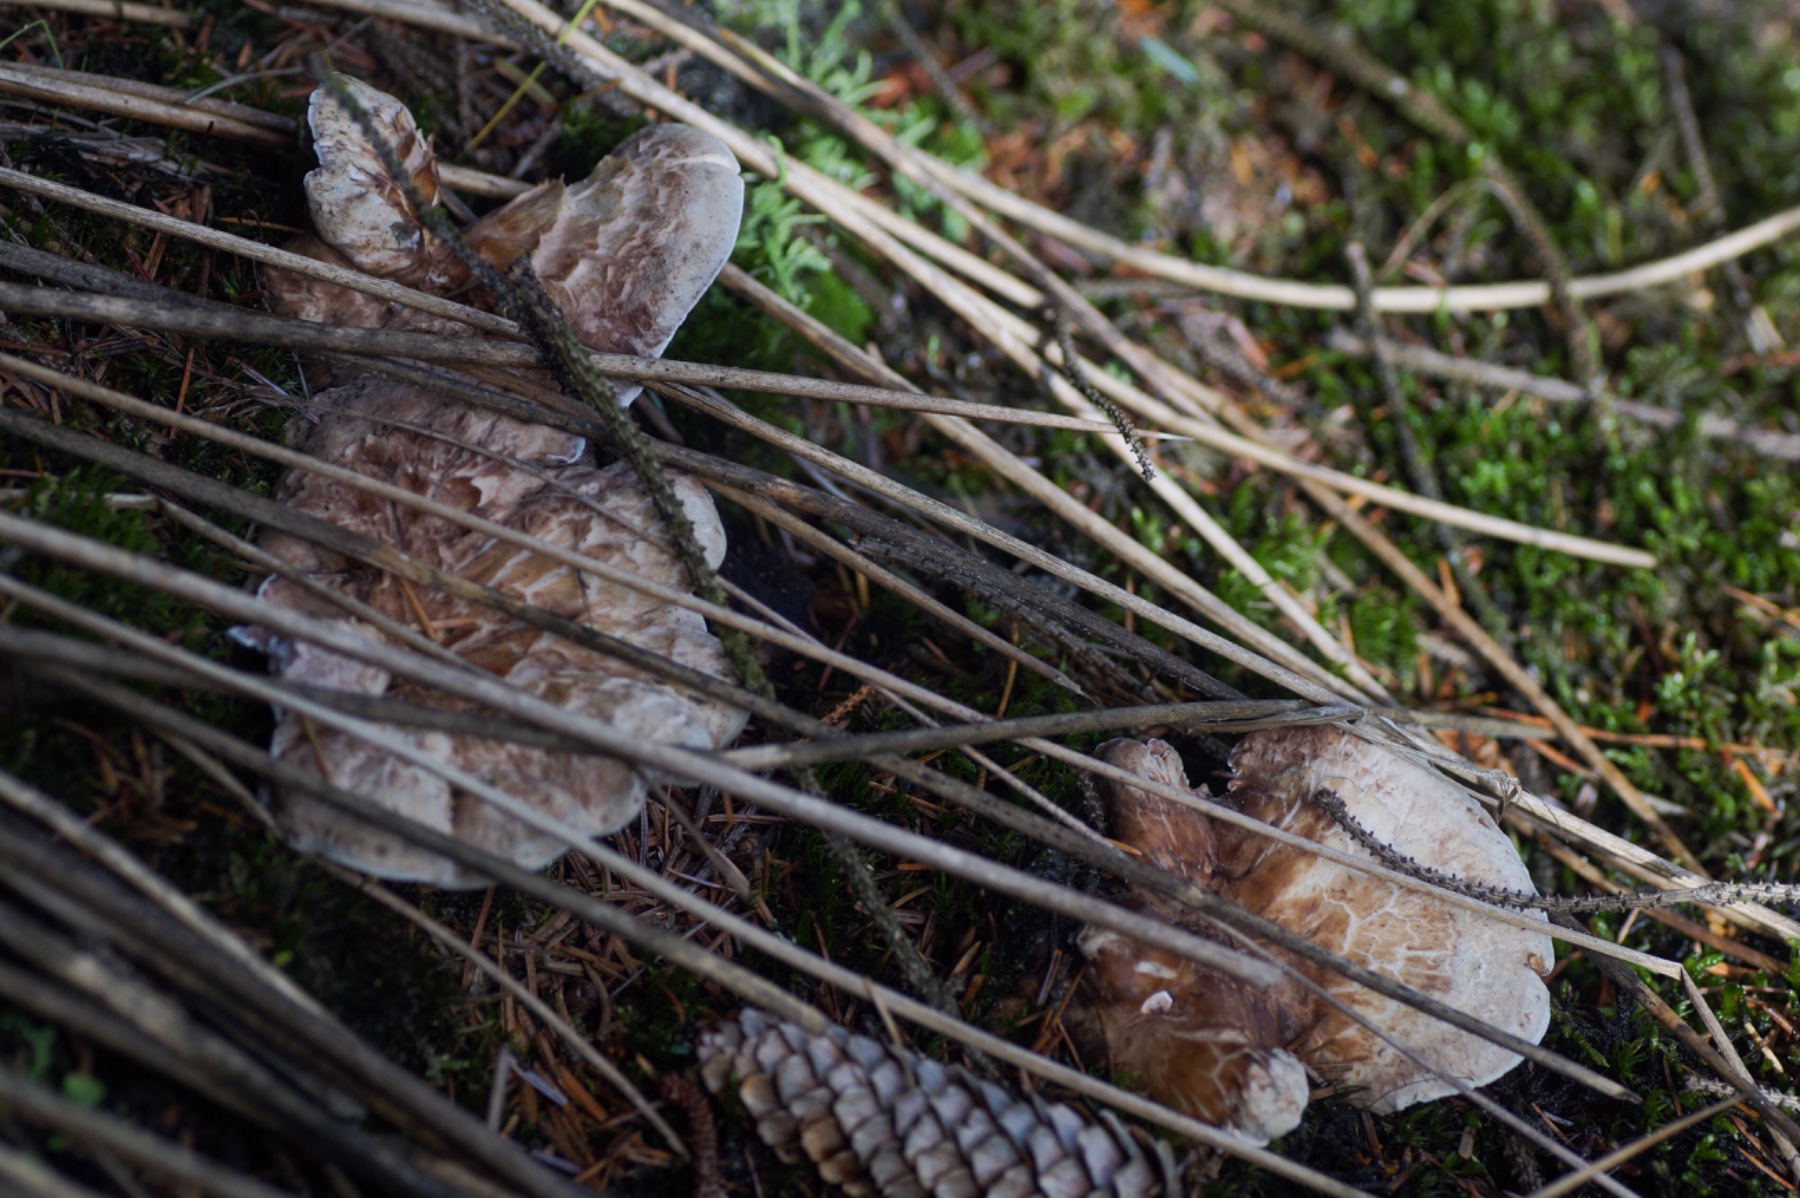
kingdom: Fungi
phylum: Basidiomycota
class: Agaricomycetes
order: Thelephorales
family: Thelephoraceae
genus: Phellodon
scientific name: Phellodon violascens
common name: violetbrun duftpigsvamp
